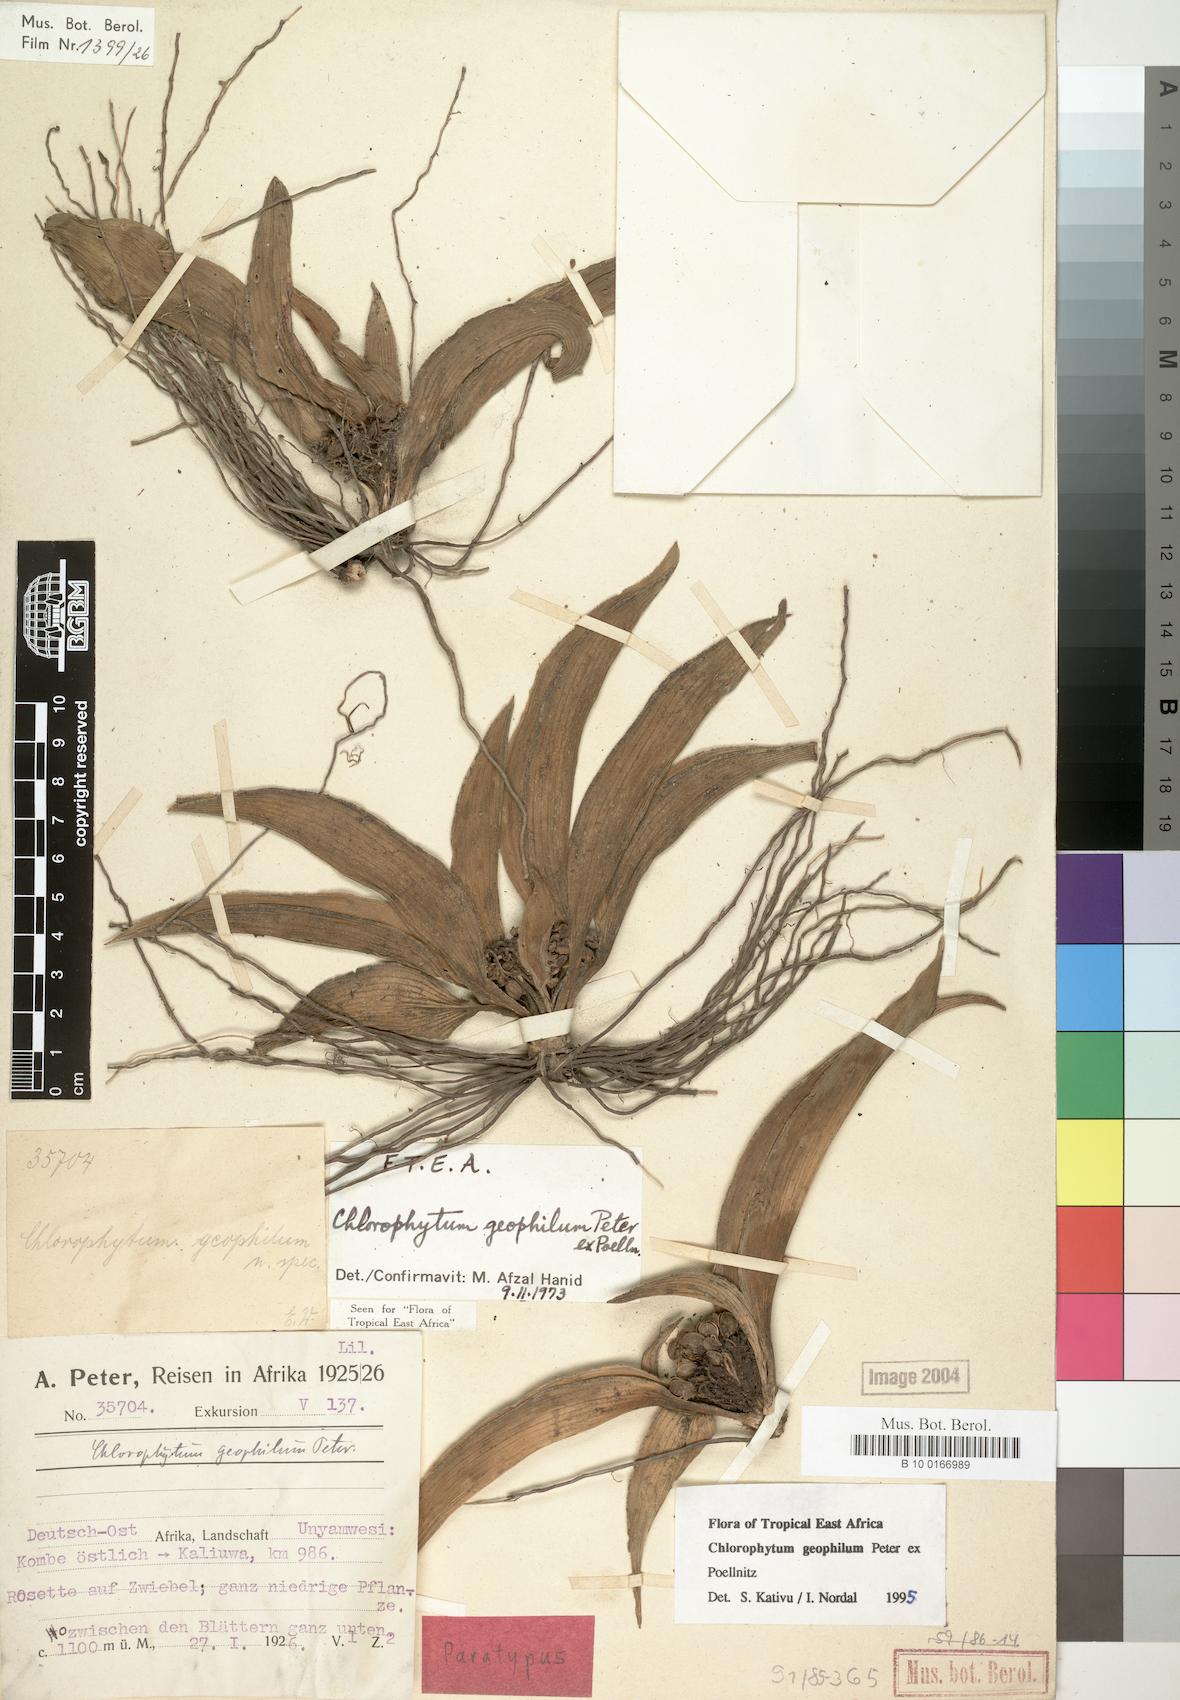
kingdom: Plantae
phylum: Tracheophyta
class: Liliopsida
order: Asparagales
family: Asparagaceae
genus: Chlorophytum
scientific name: Chlorophytum geophilum
